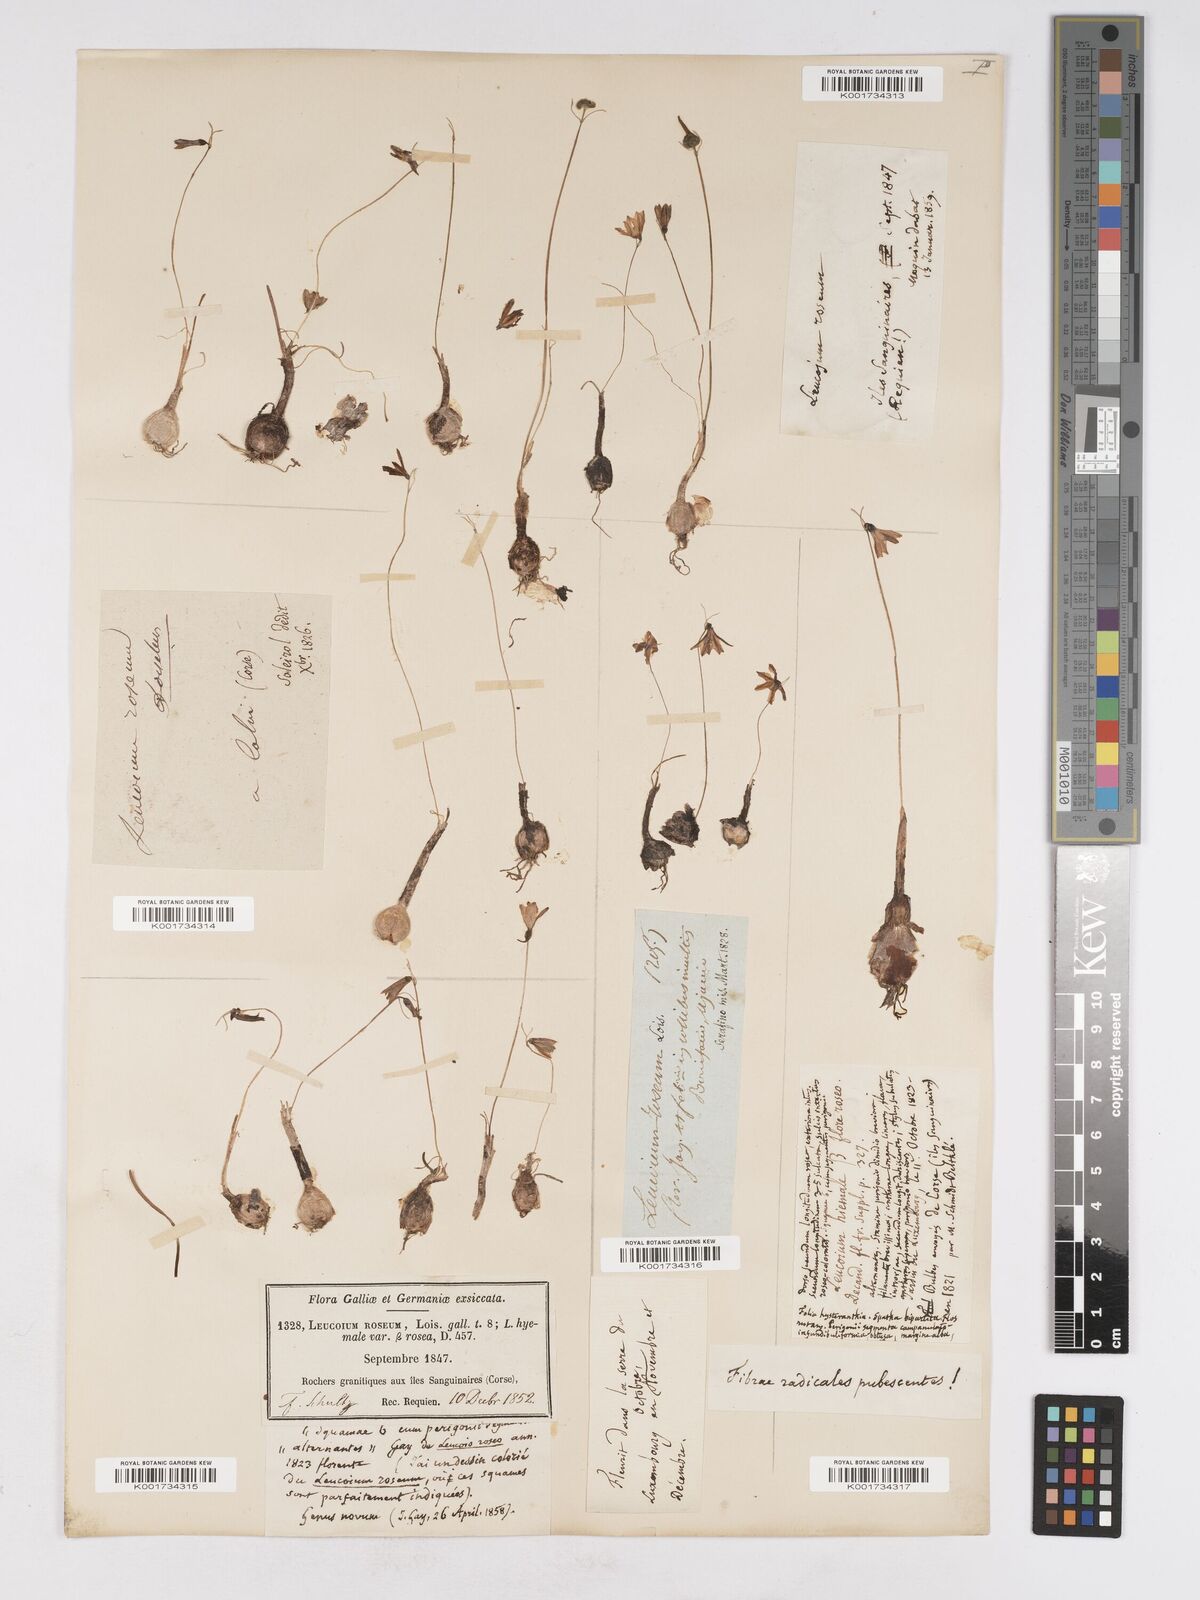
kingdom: Plantae
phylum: Tracheophyta
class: Liliopsida
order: Asparagales
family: Amaryllidaceae
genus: Acis
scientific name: Acis rosea
